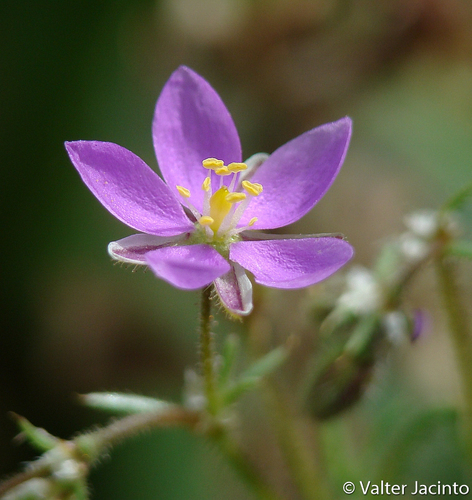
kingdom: Plantae
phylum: Tracheophyta
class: Magnoliopsida
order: Caryophyllales
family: Caryophyllaceae
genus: Spergularia
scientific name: Spergularia purpurea
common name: Purple sandspurry
